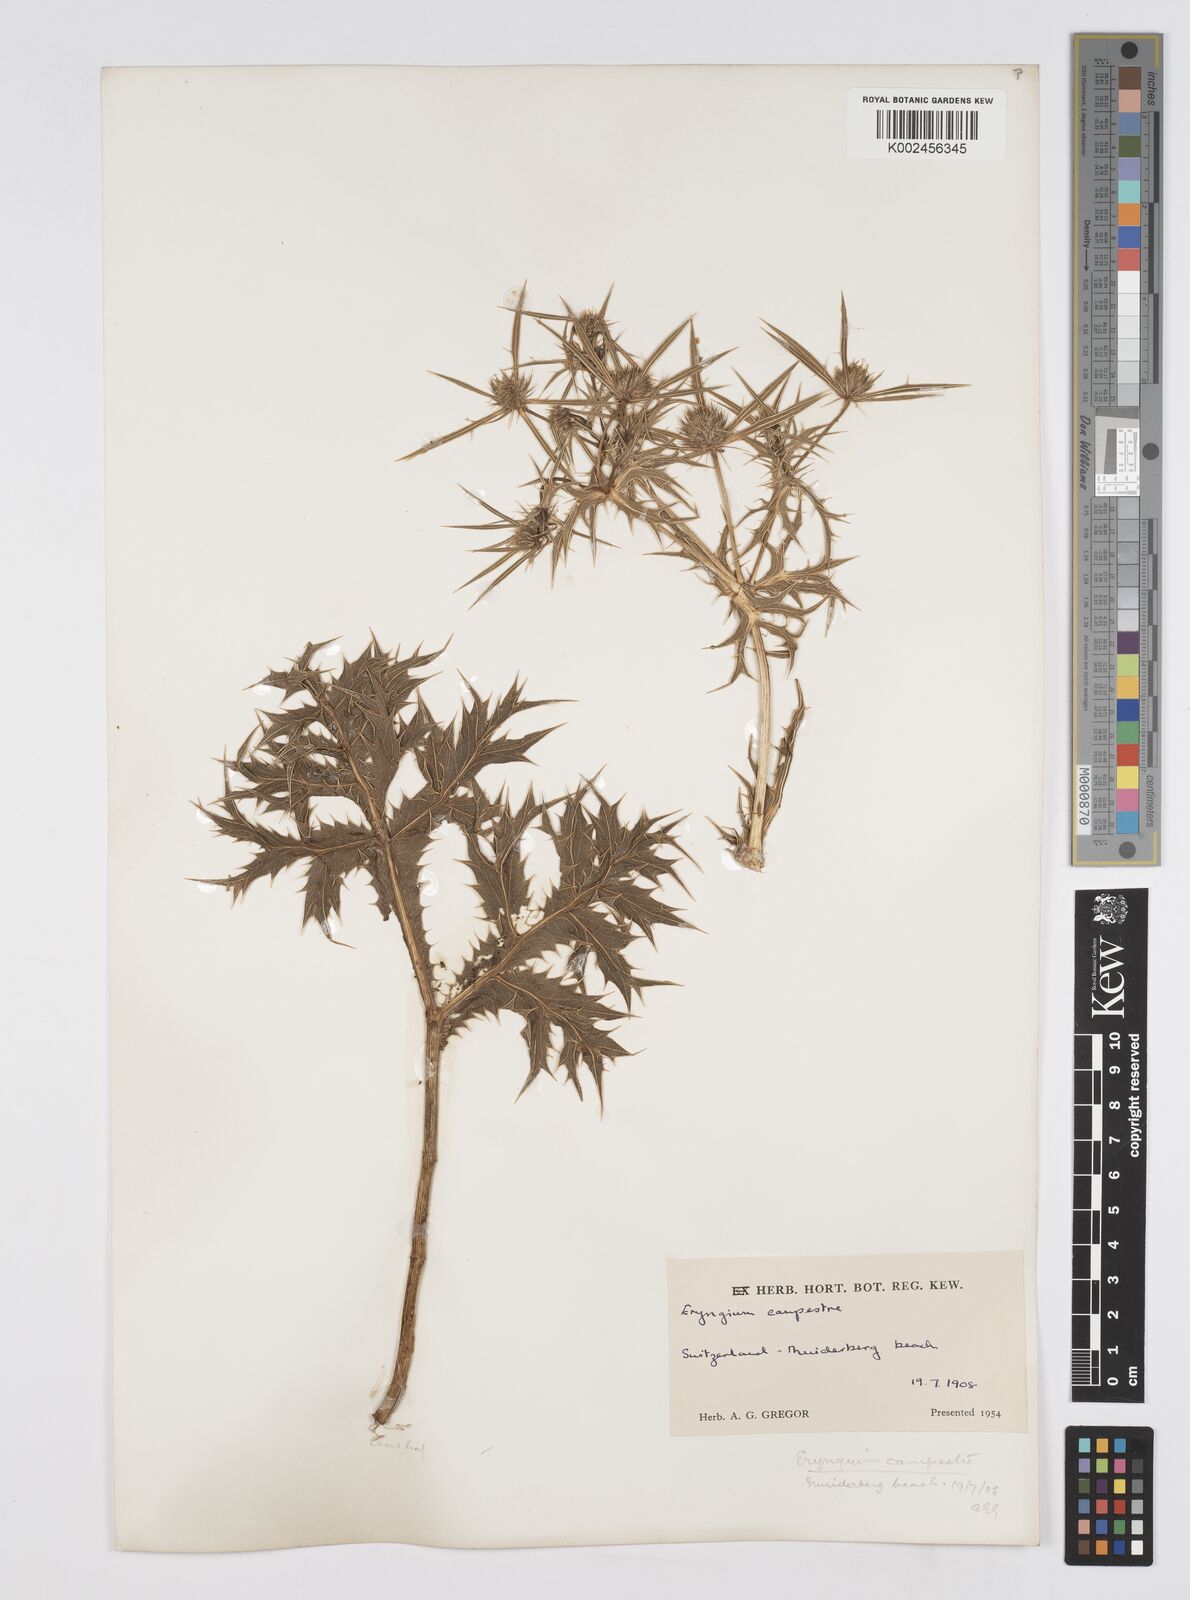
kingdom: Plantae
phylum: Tracheophyta
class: Magnoliopsida
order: Apiales
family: Apiaceae
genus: Eryngium
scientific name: Eryngium campestre
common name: Field eryngo
